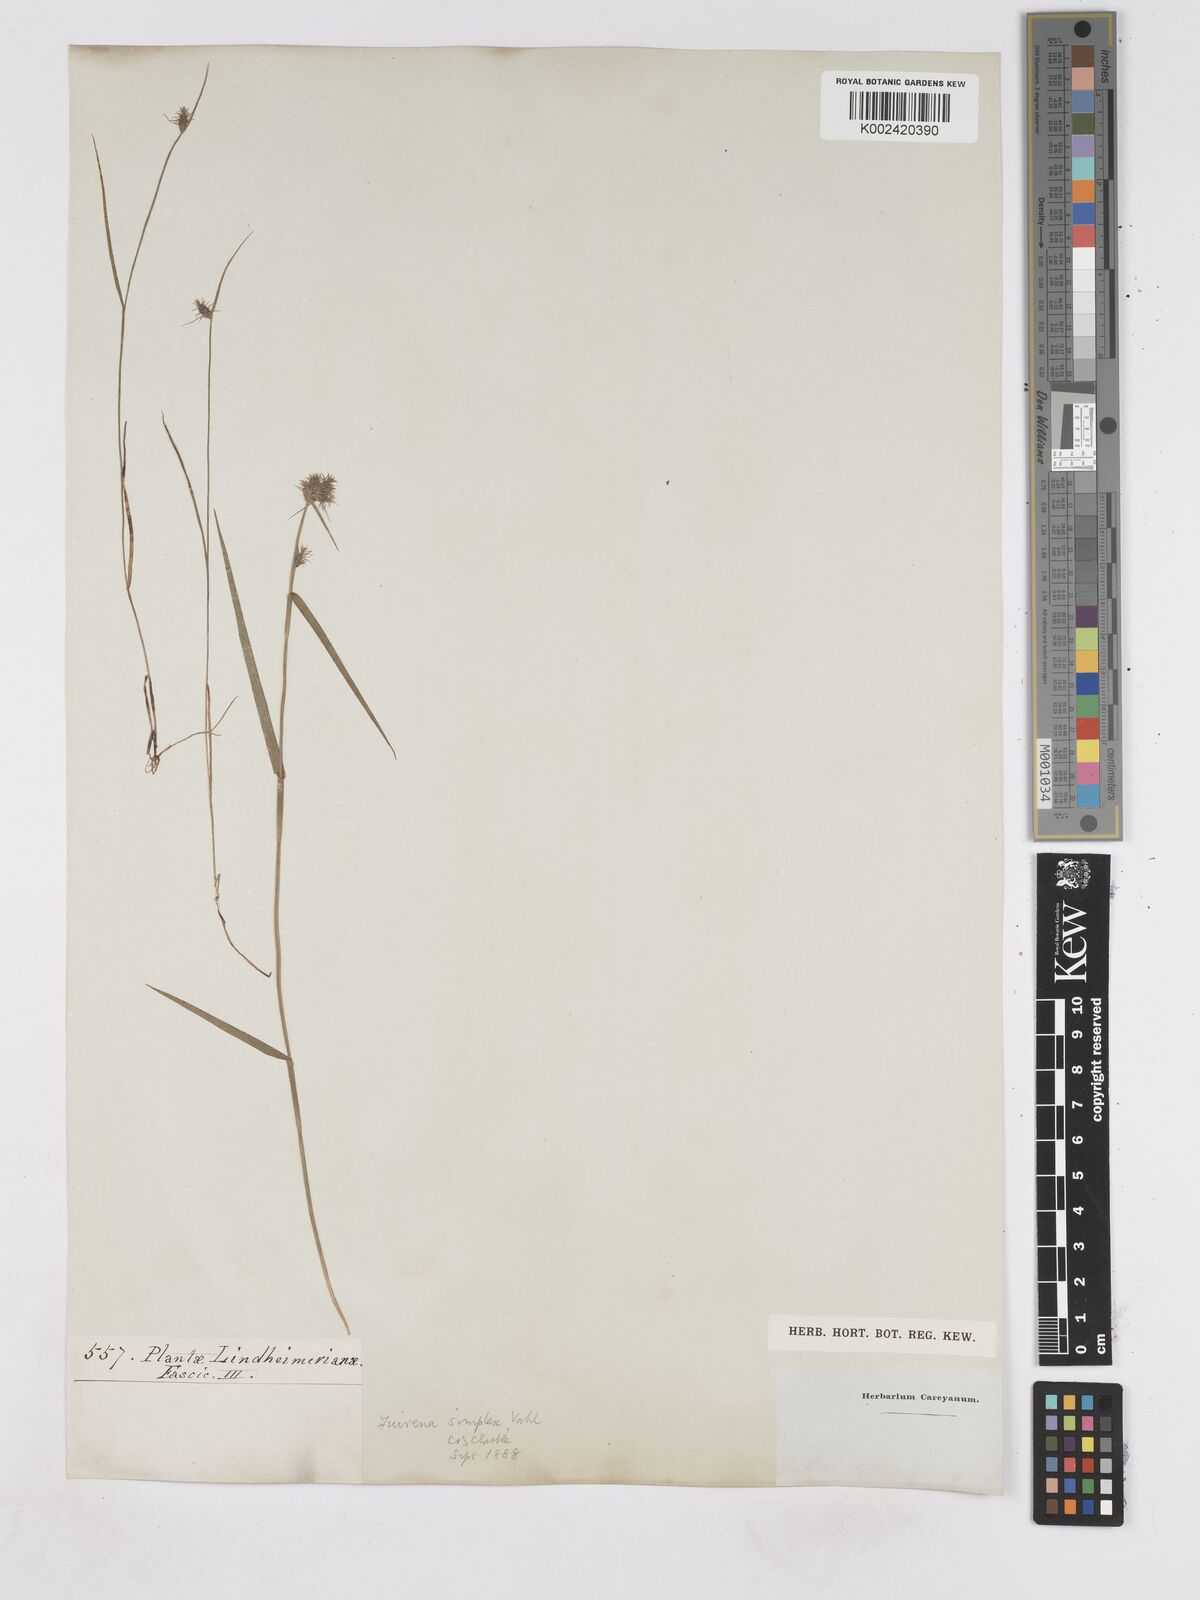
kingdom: Plantae
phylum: Tracheophyta
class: Liliopsida
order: Poales
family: Cyperaceae
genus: Fuirena
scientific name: Fuirena simplex
